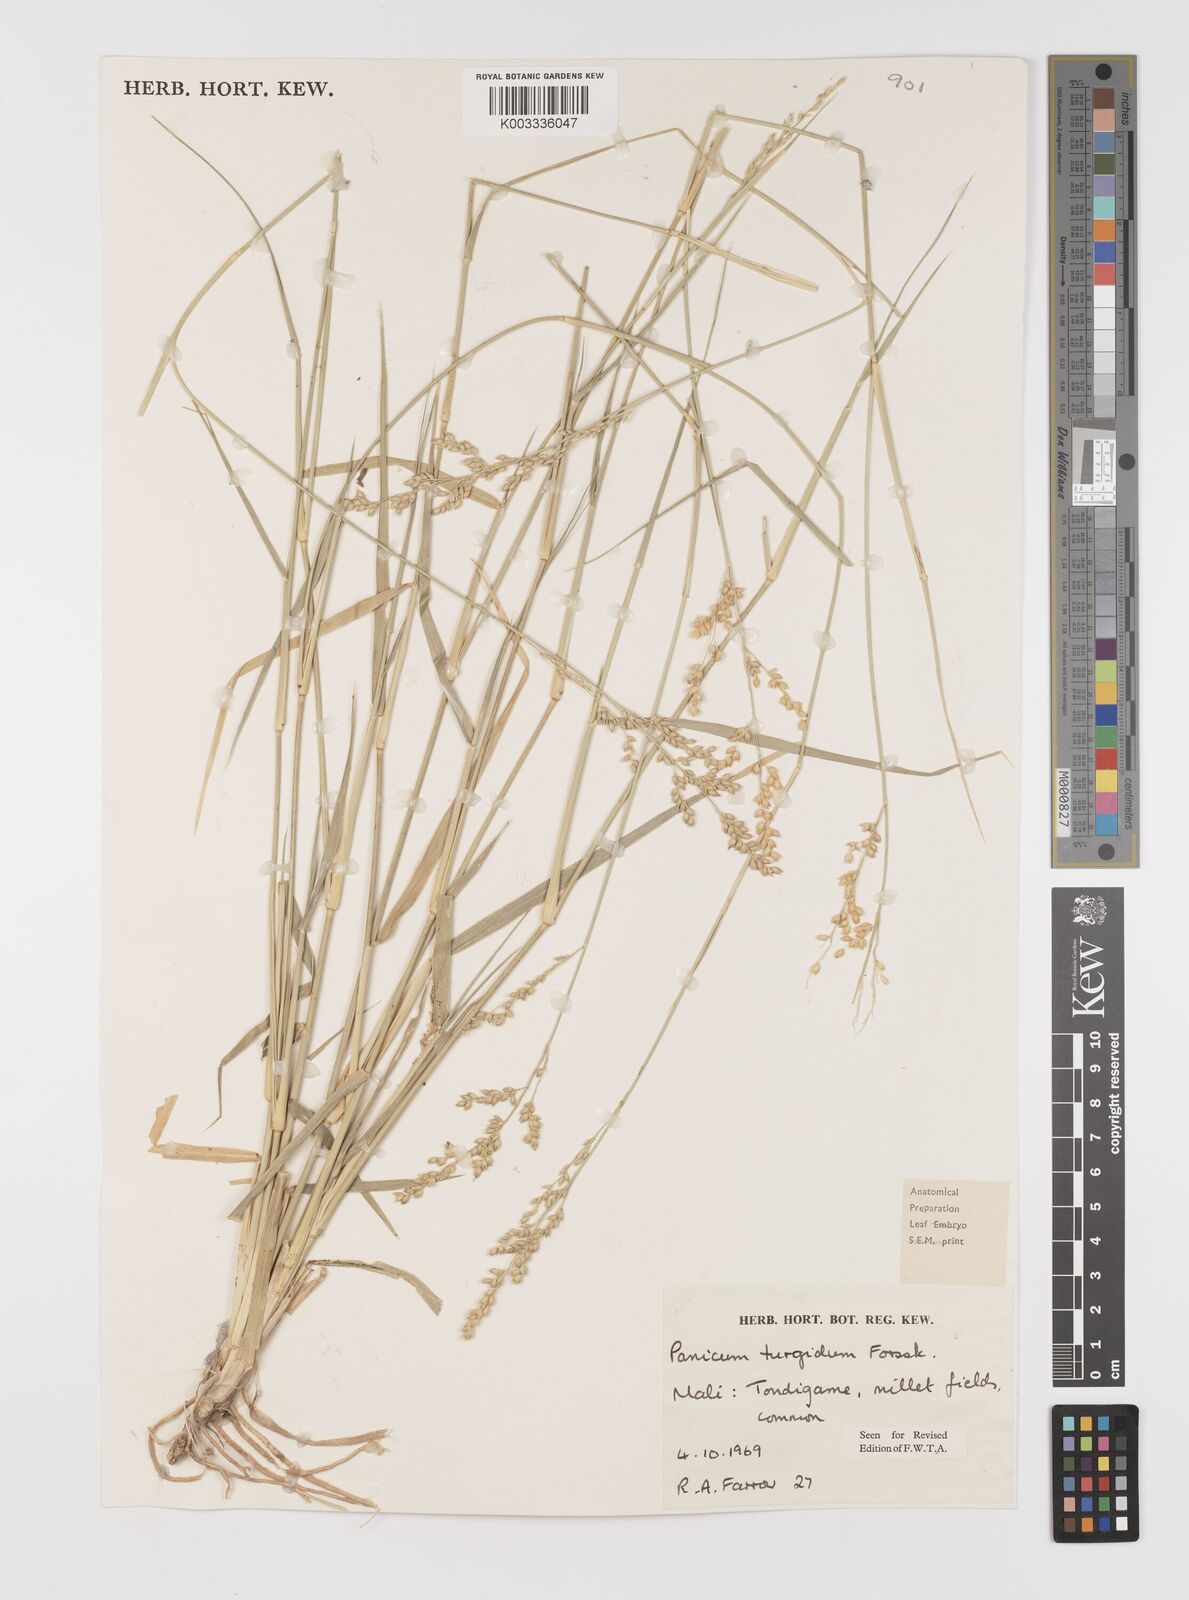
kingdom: Plantae
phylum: Tracheophyta
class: Liliopsida
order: Poales
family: Poaceae
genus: Panicum
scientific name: Panicum turgidum
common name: Desert grass
